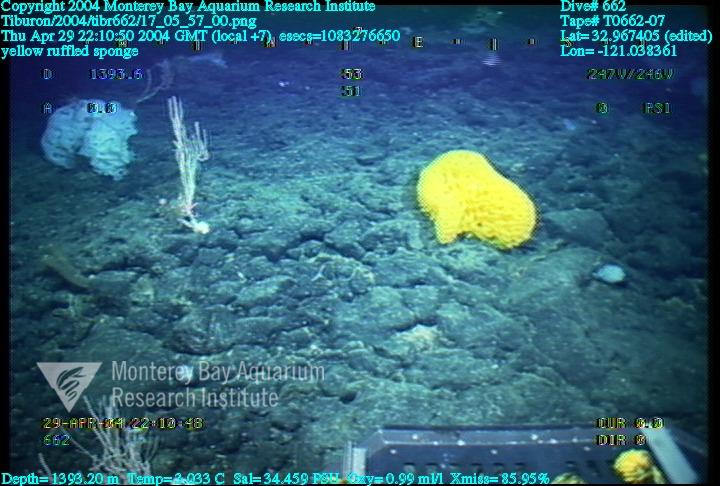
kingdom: Animalia
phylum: Porifera
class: Hexactinellida
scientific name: Hexactinellida
